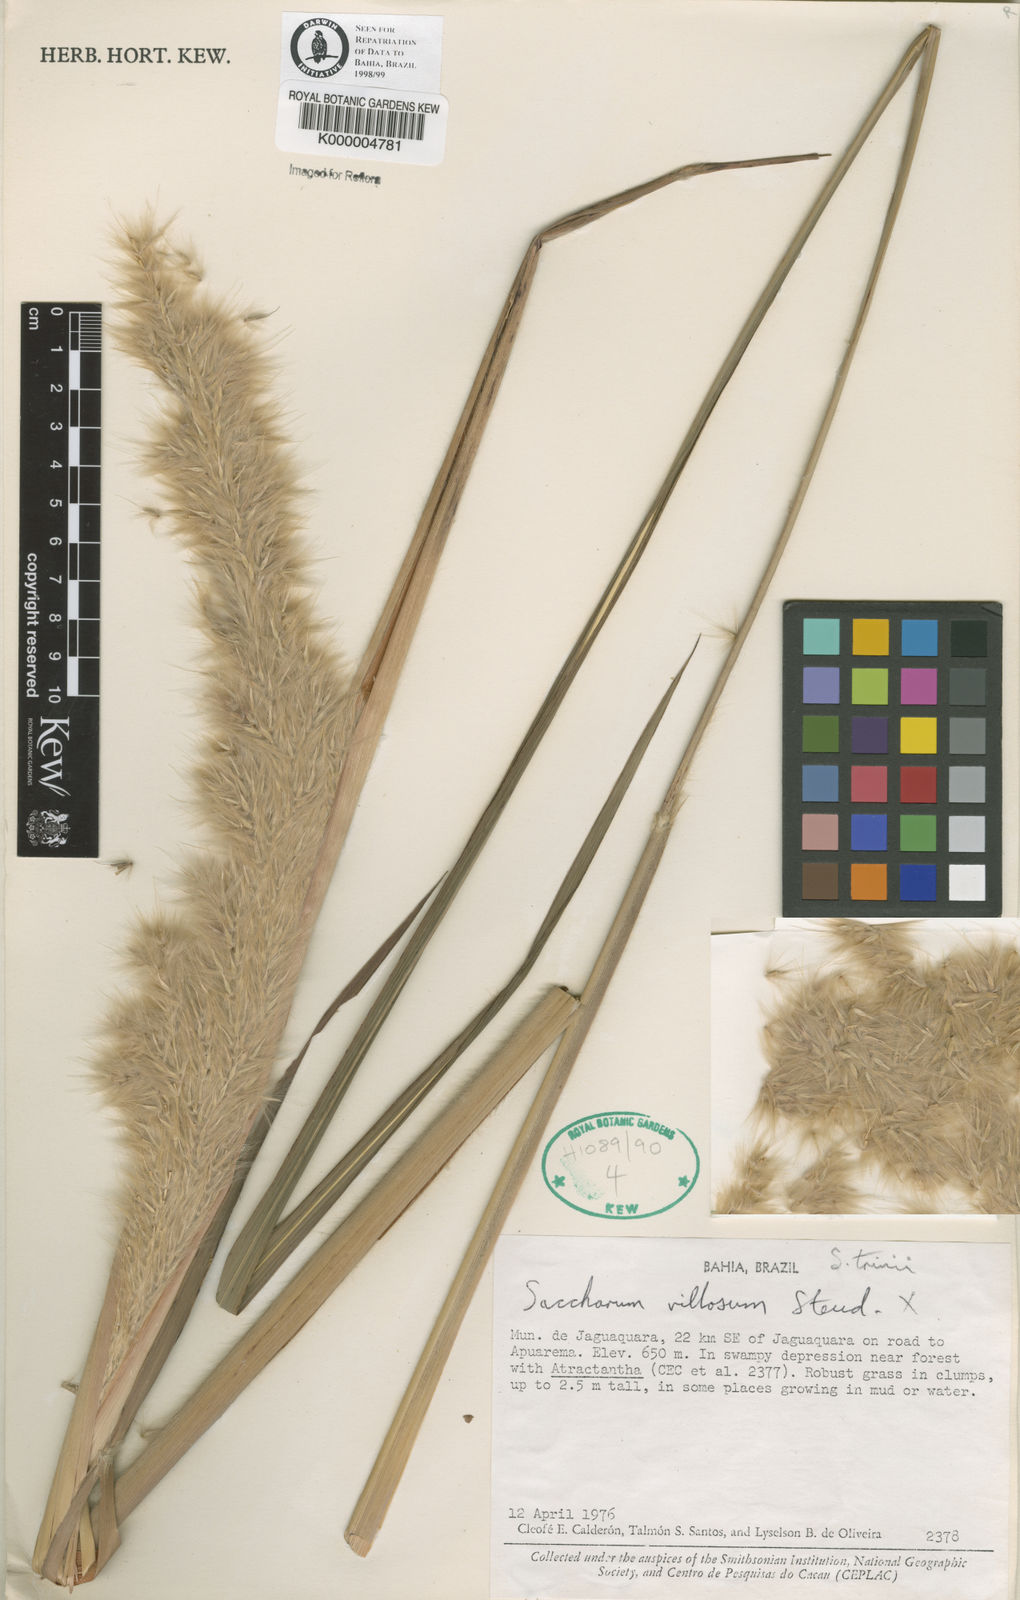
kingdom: Plantae
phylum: Tracheophyta
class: Liliopsida
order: Poales
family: Poaceae
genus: Erianthus
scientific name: Erianthus trinii
